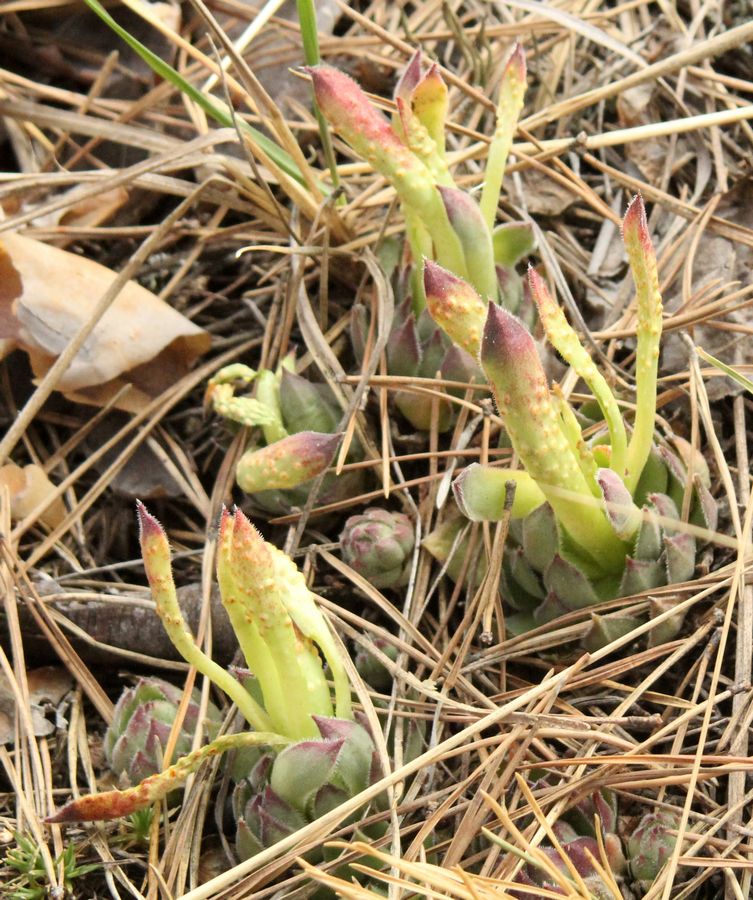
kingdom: Plantae
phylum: Tracheophyta
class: Magnoliopsida
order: Saxifragales
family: Crassulaceae
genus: Sempervivum
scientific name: Sempervivum ruthenicum
